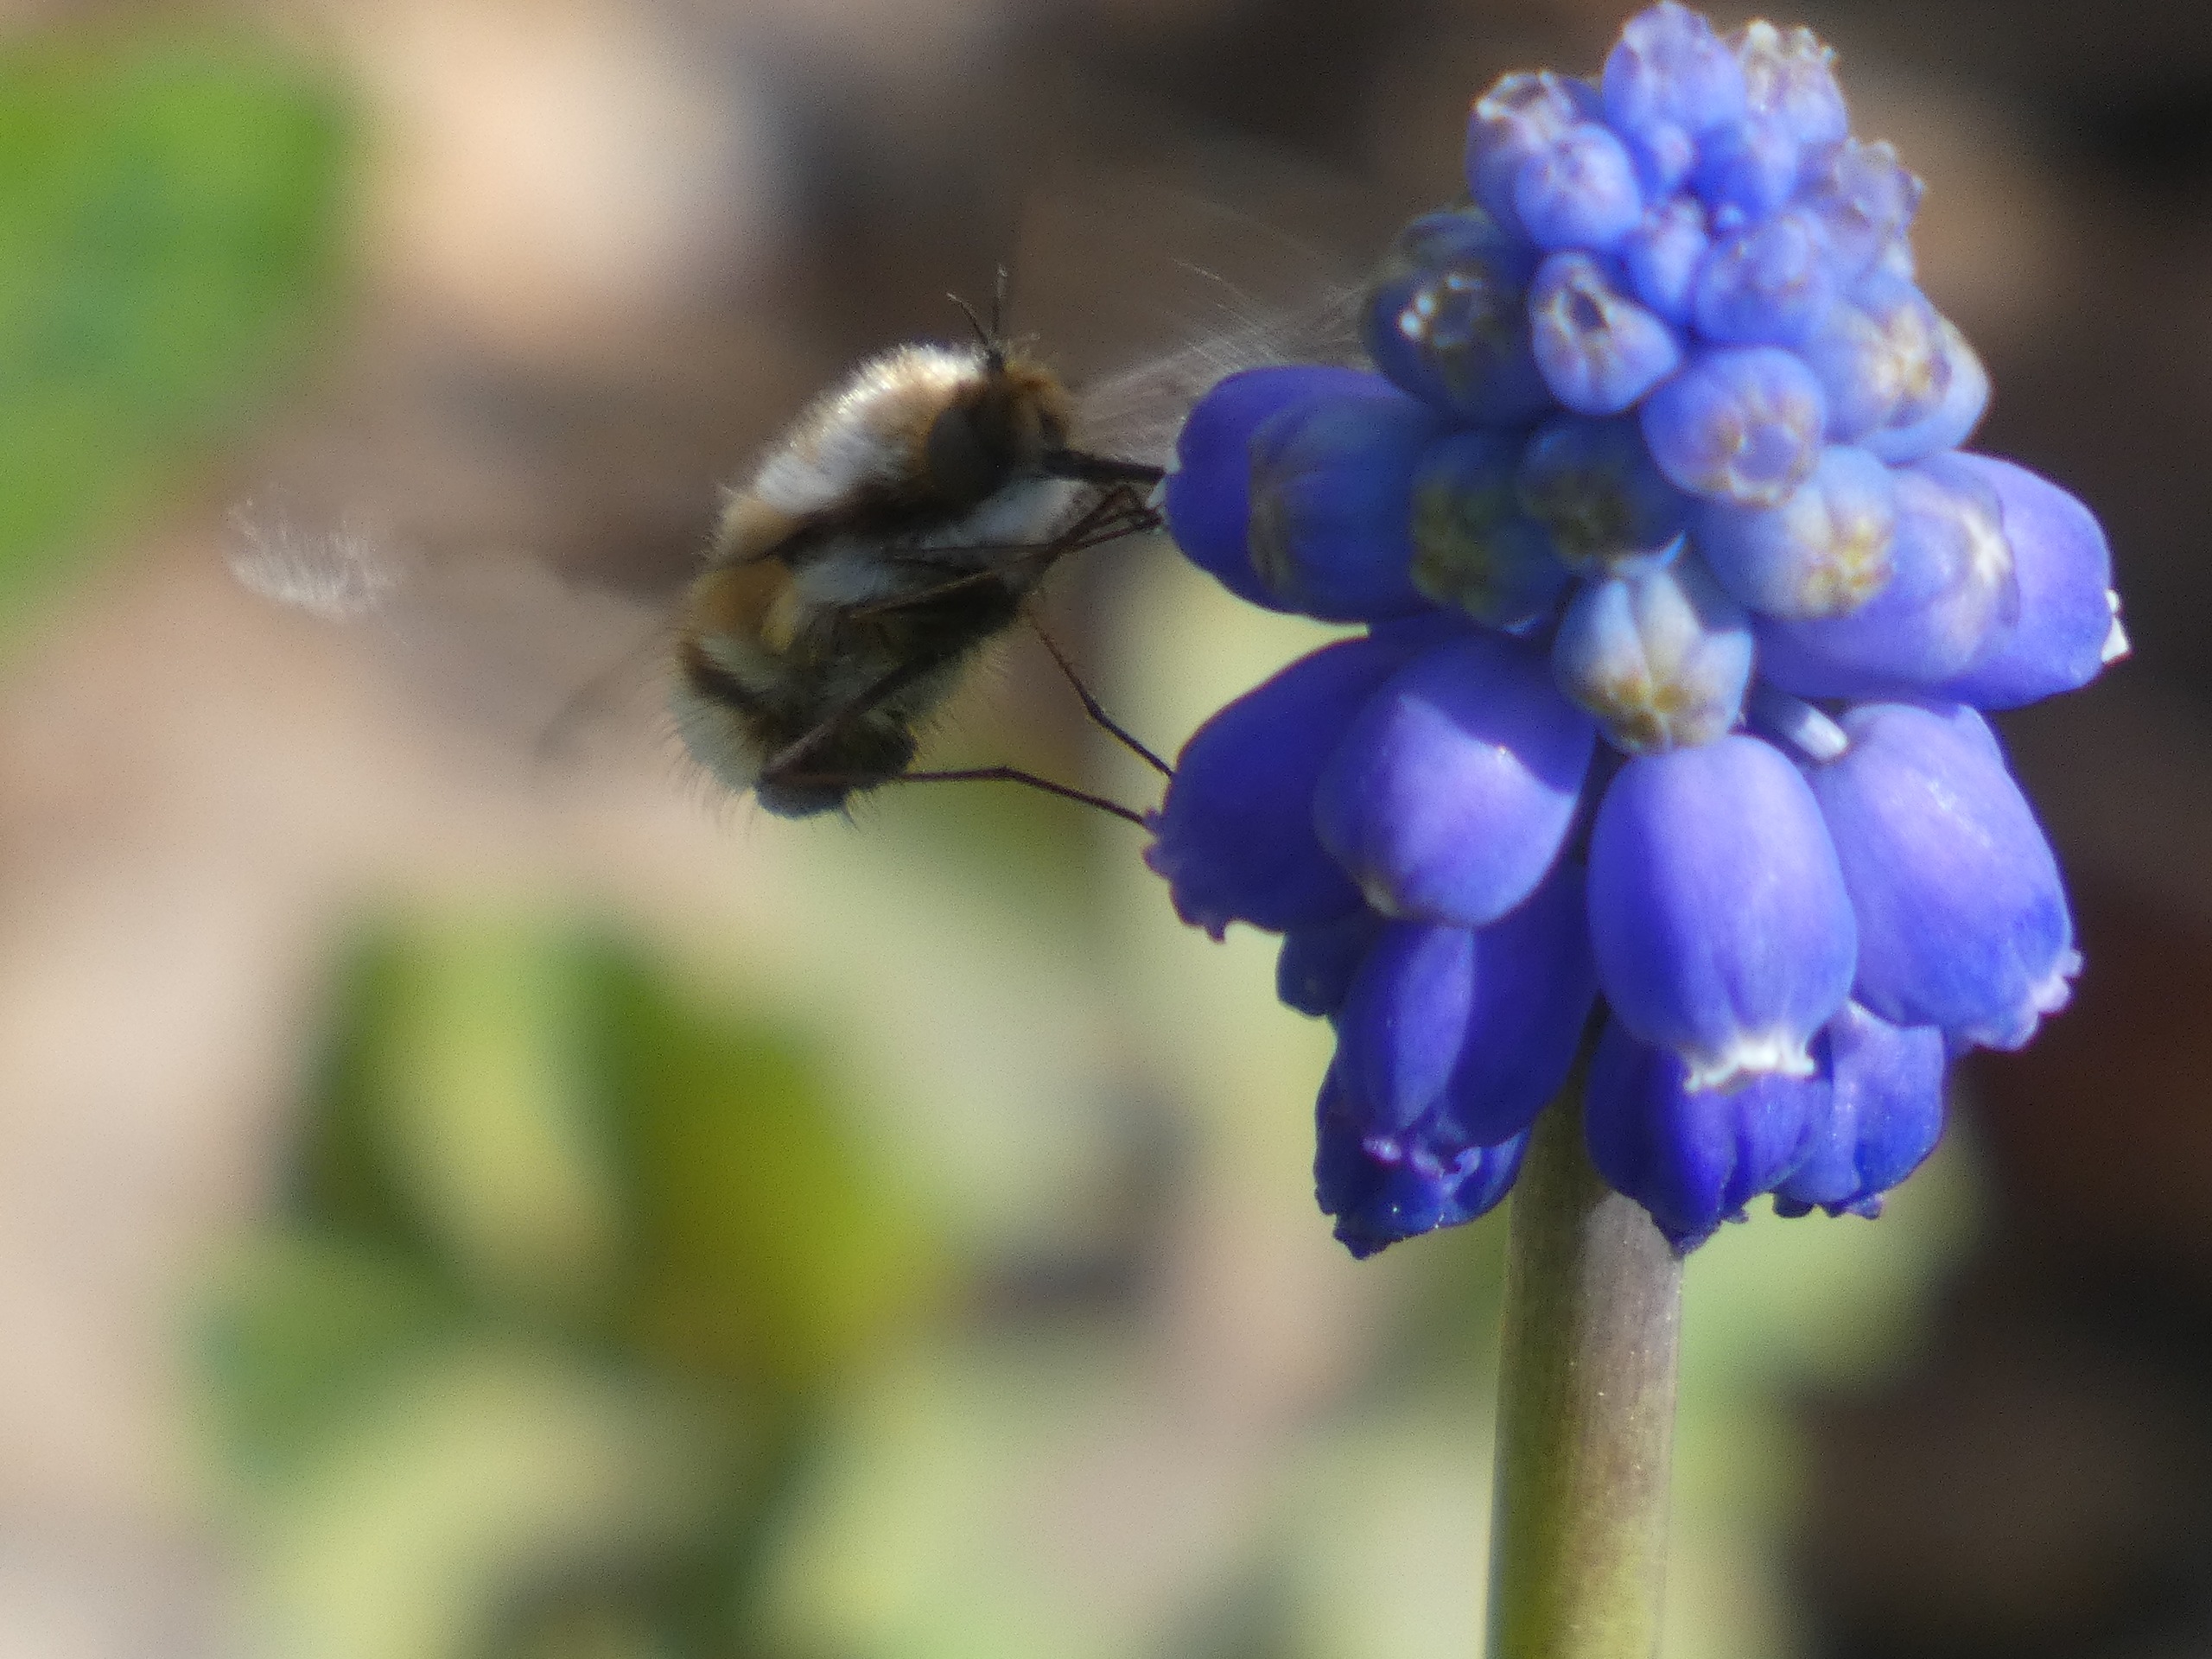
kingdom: Animalia
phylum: Arthropoda
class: Insecta
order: Diptera
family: Bombyliidae
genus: Bombylius
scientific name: Bombylius major
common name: Stor humleflue
